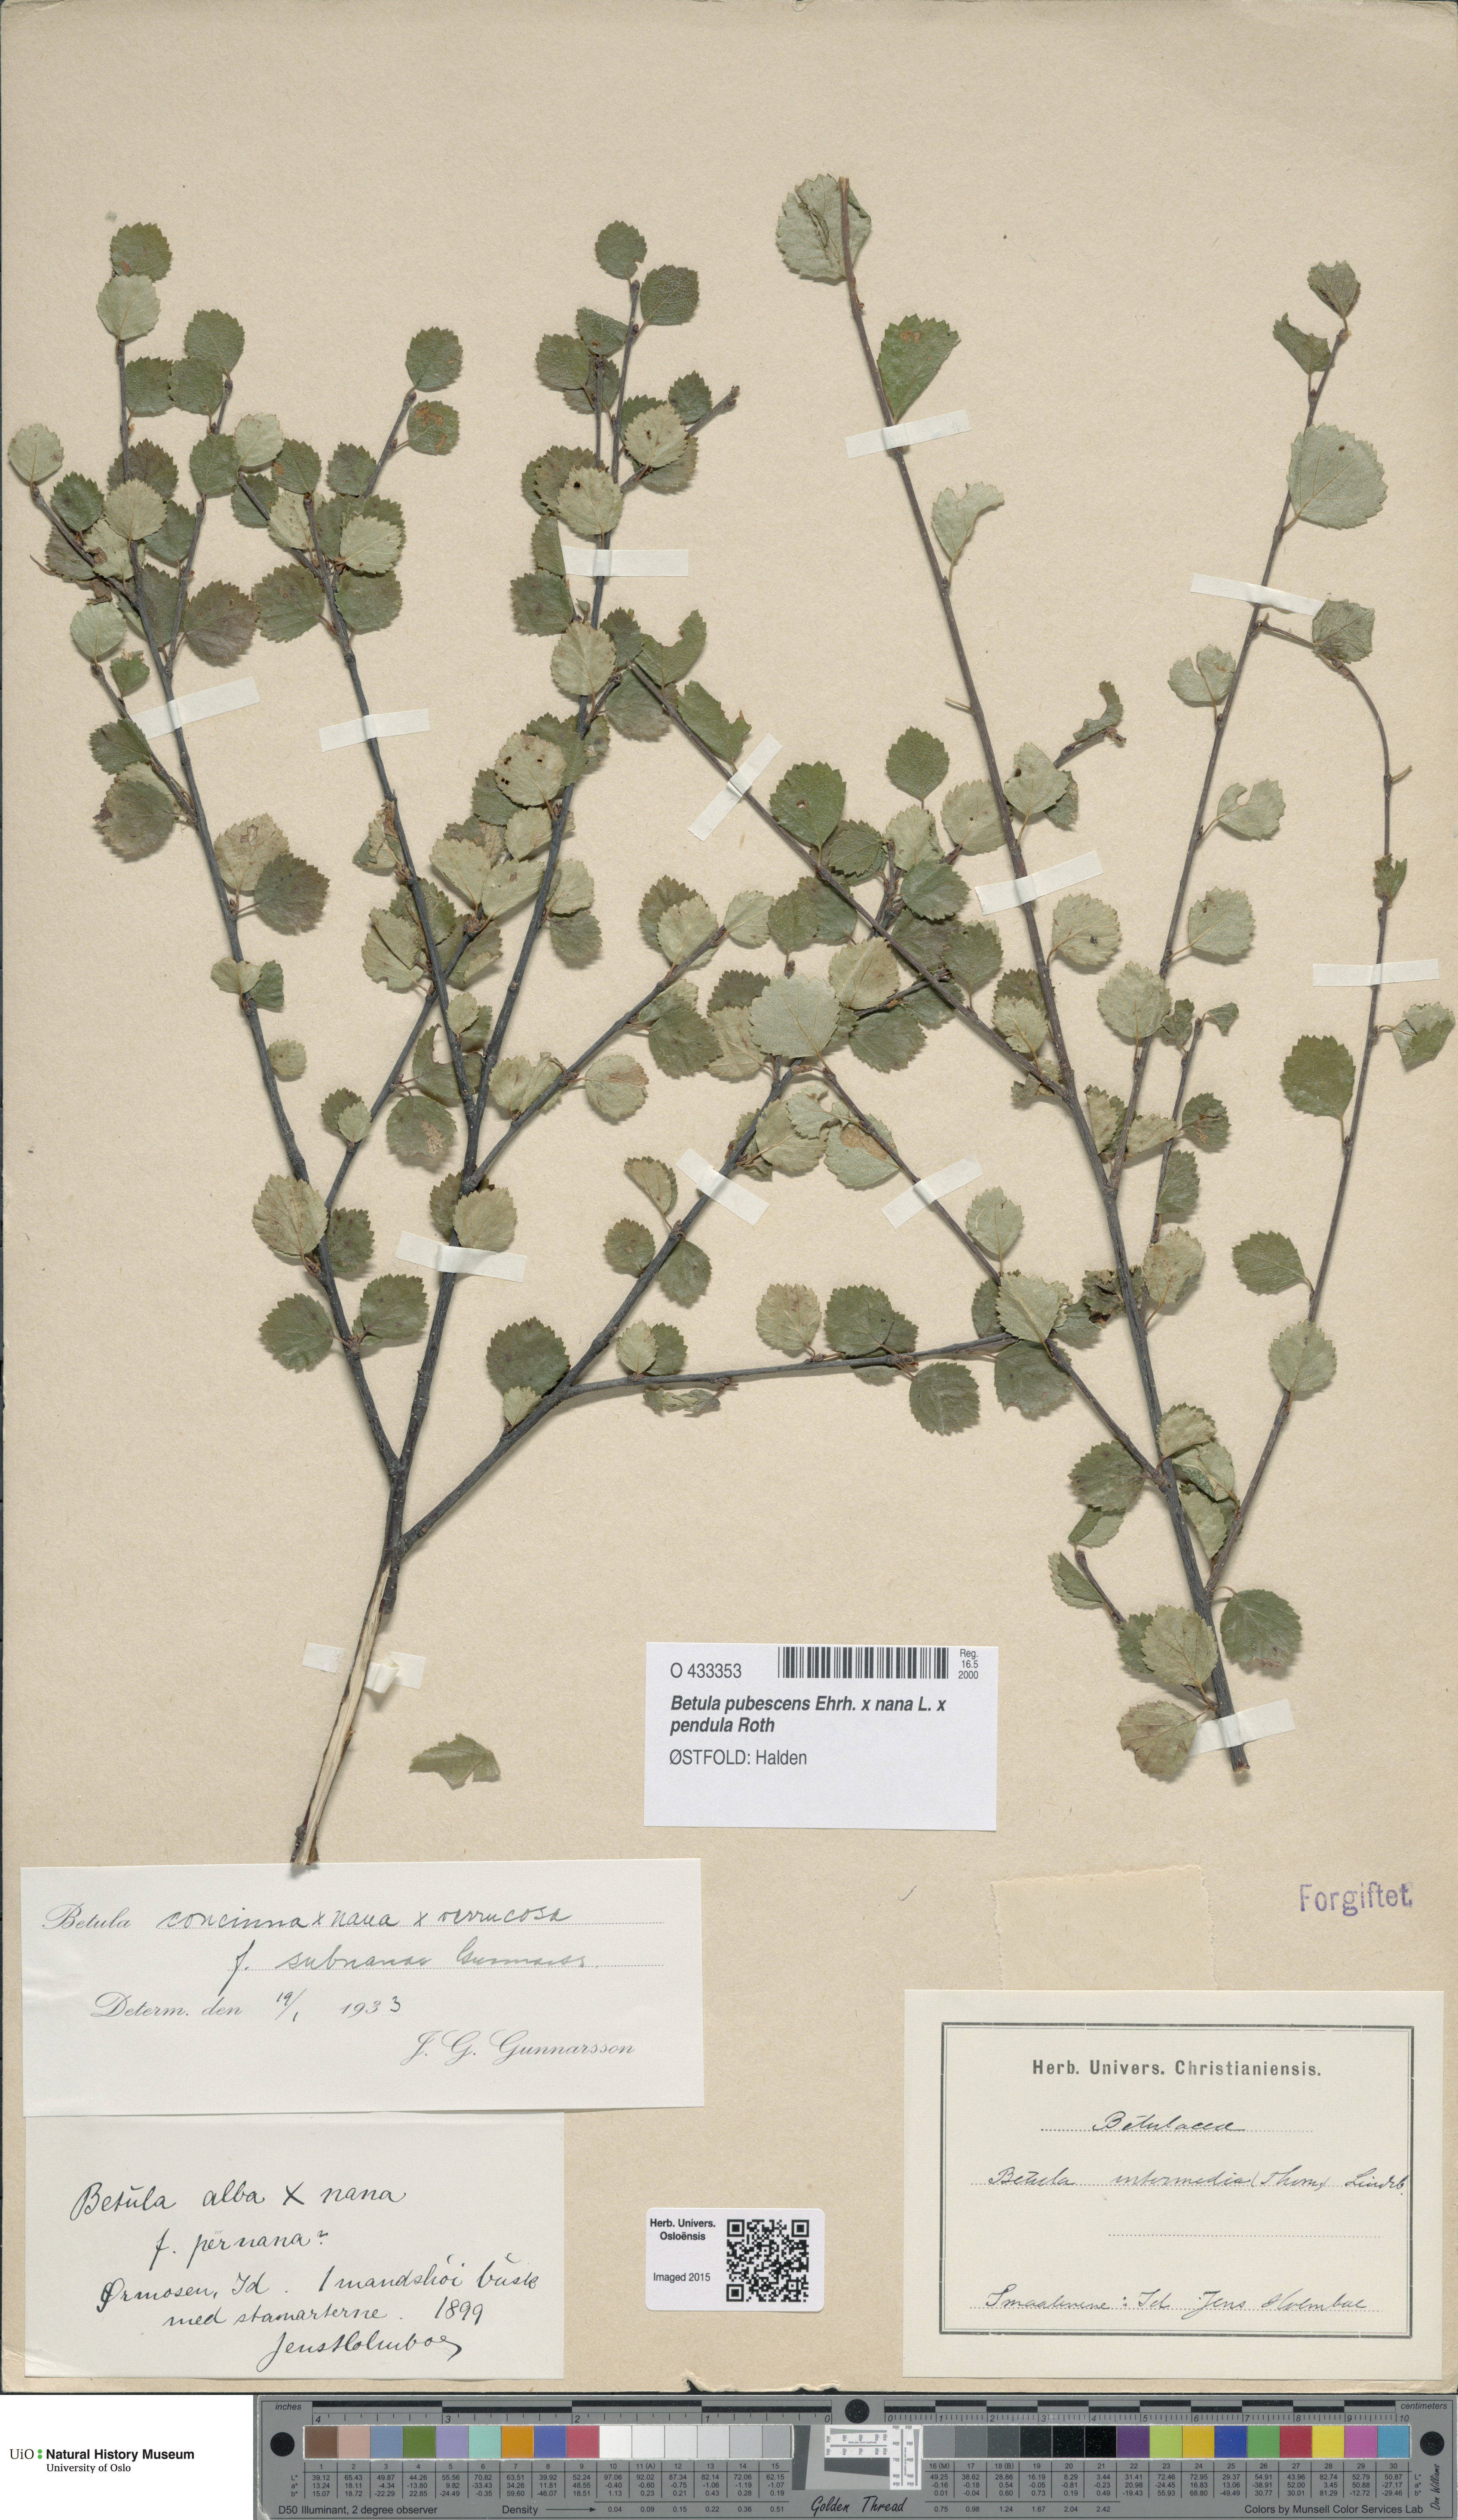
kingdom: Plantae
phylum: Tracheophyta
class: Magnoliopsida
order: Fagales
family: Betulaceae
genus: Betula
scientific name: Betula
